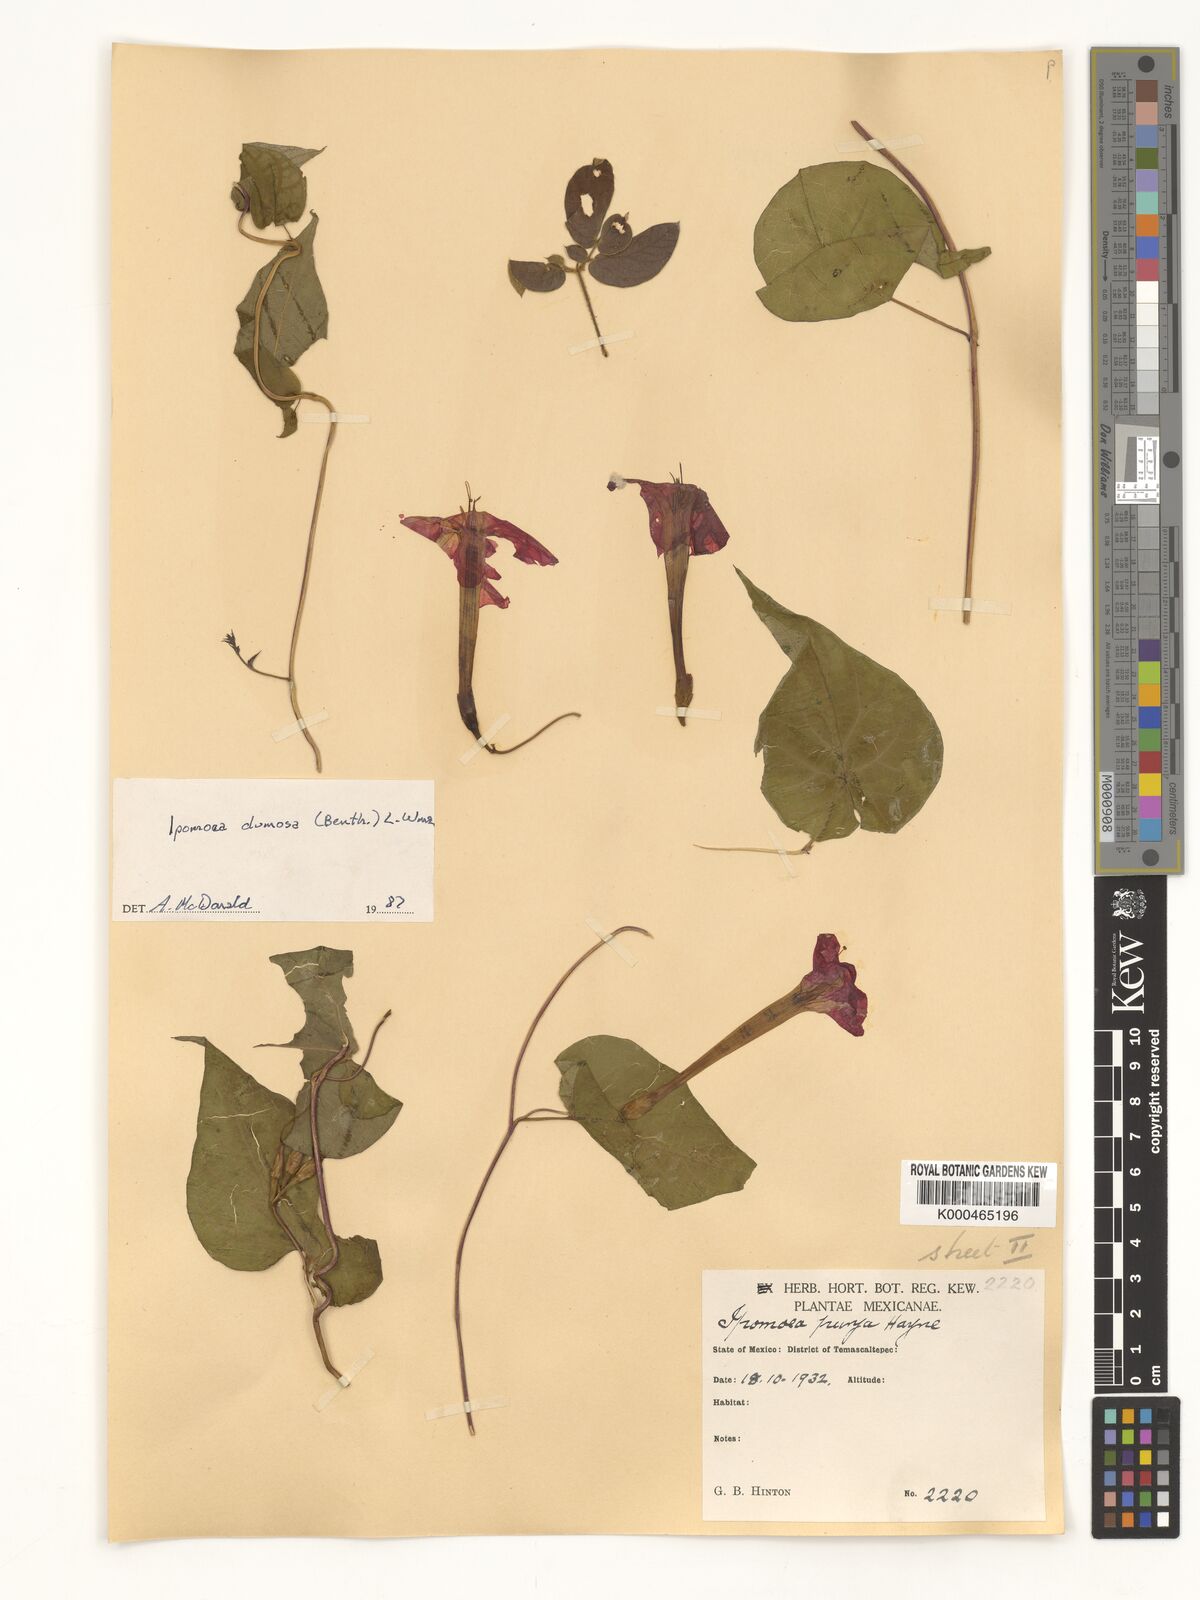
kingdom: Plantae
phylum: Tracheophyta
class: Magnoliopsida
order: Solanales
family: Convolvulaceae
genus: Ipomoea
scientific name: Ipomoea dumosa
